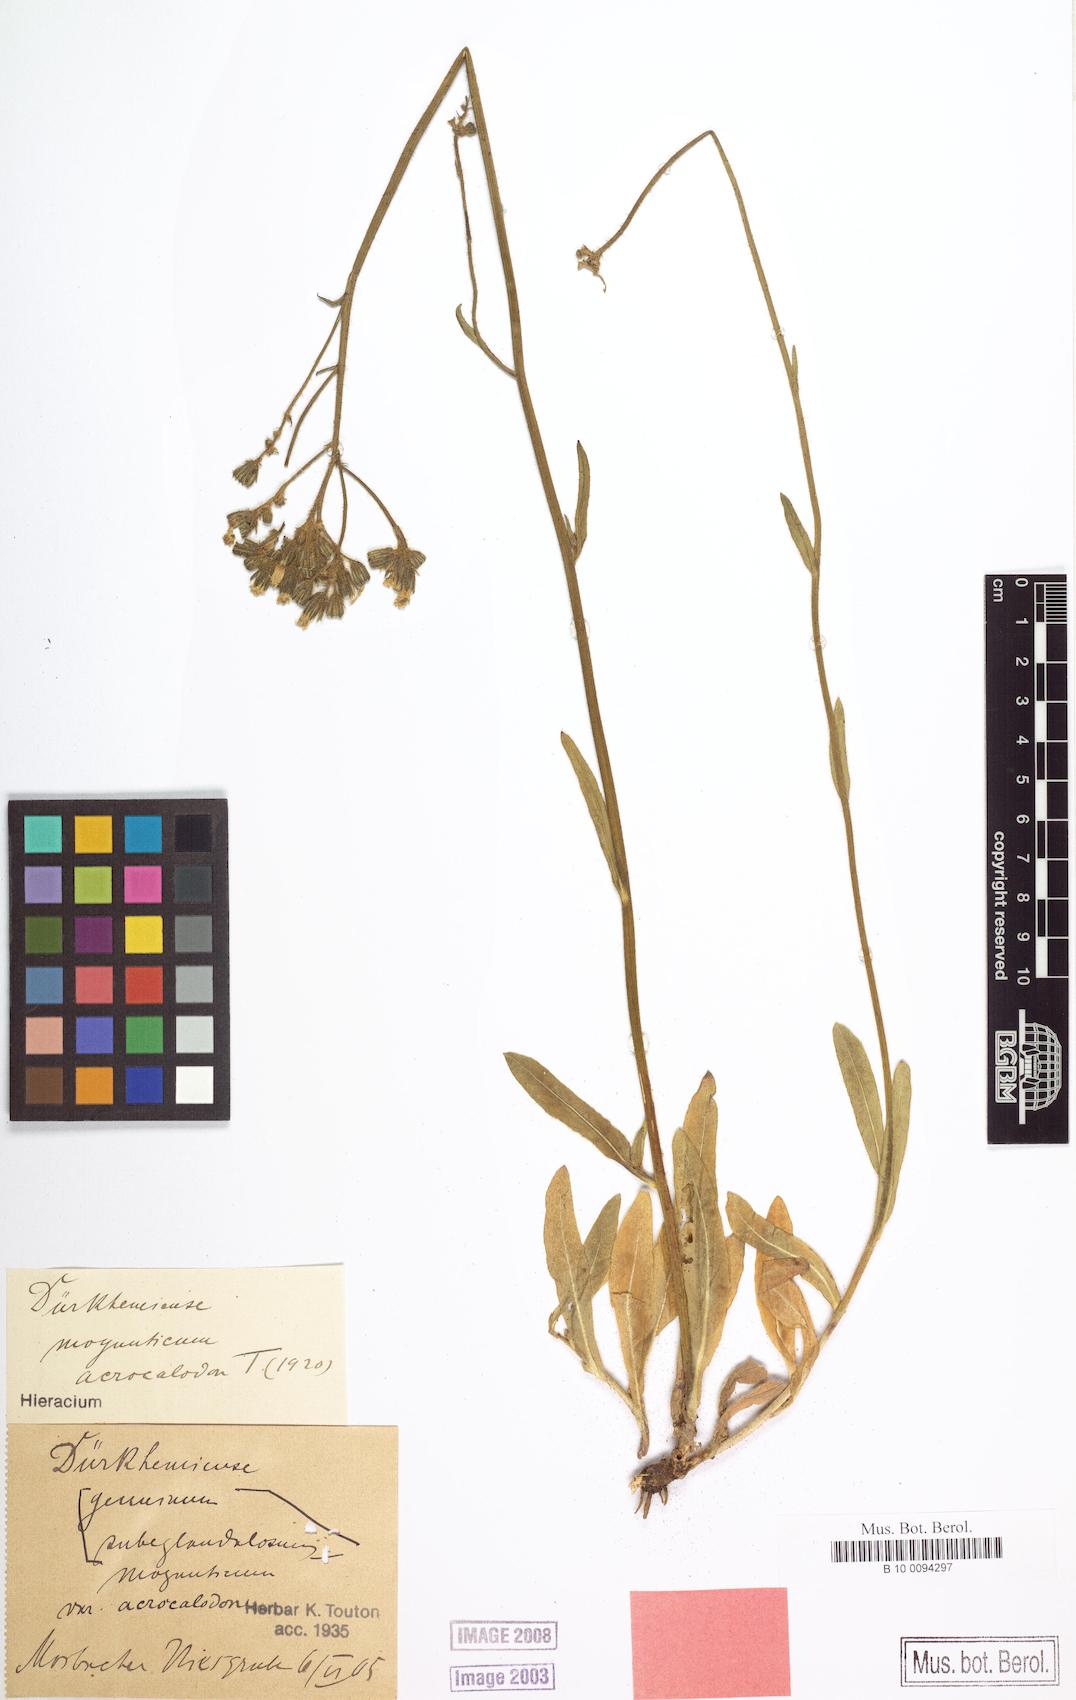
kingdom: Plantae
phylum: Tracheophyta
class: Magnoliopsida
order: Asterales
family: Asteraceae
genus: Pilosella
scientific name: Pilosella duerkhemiensis
